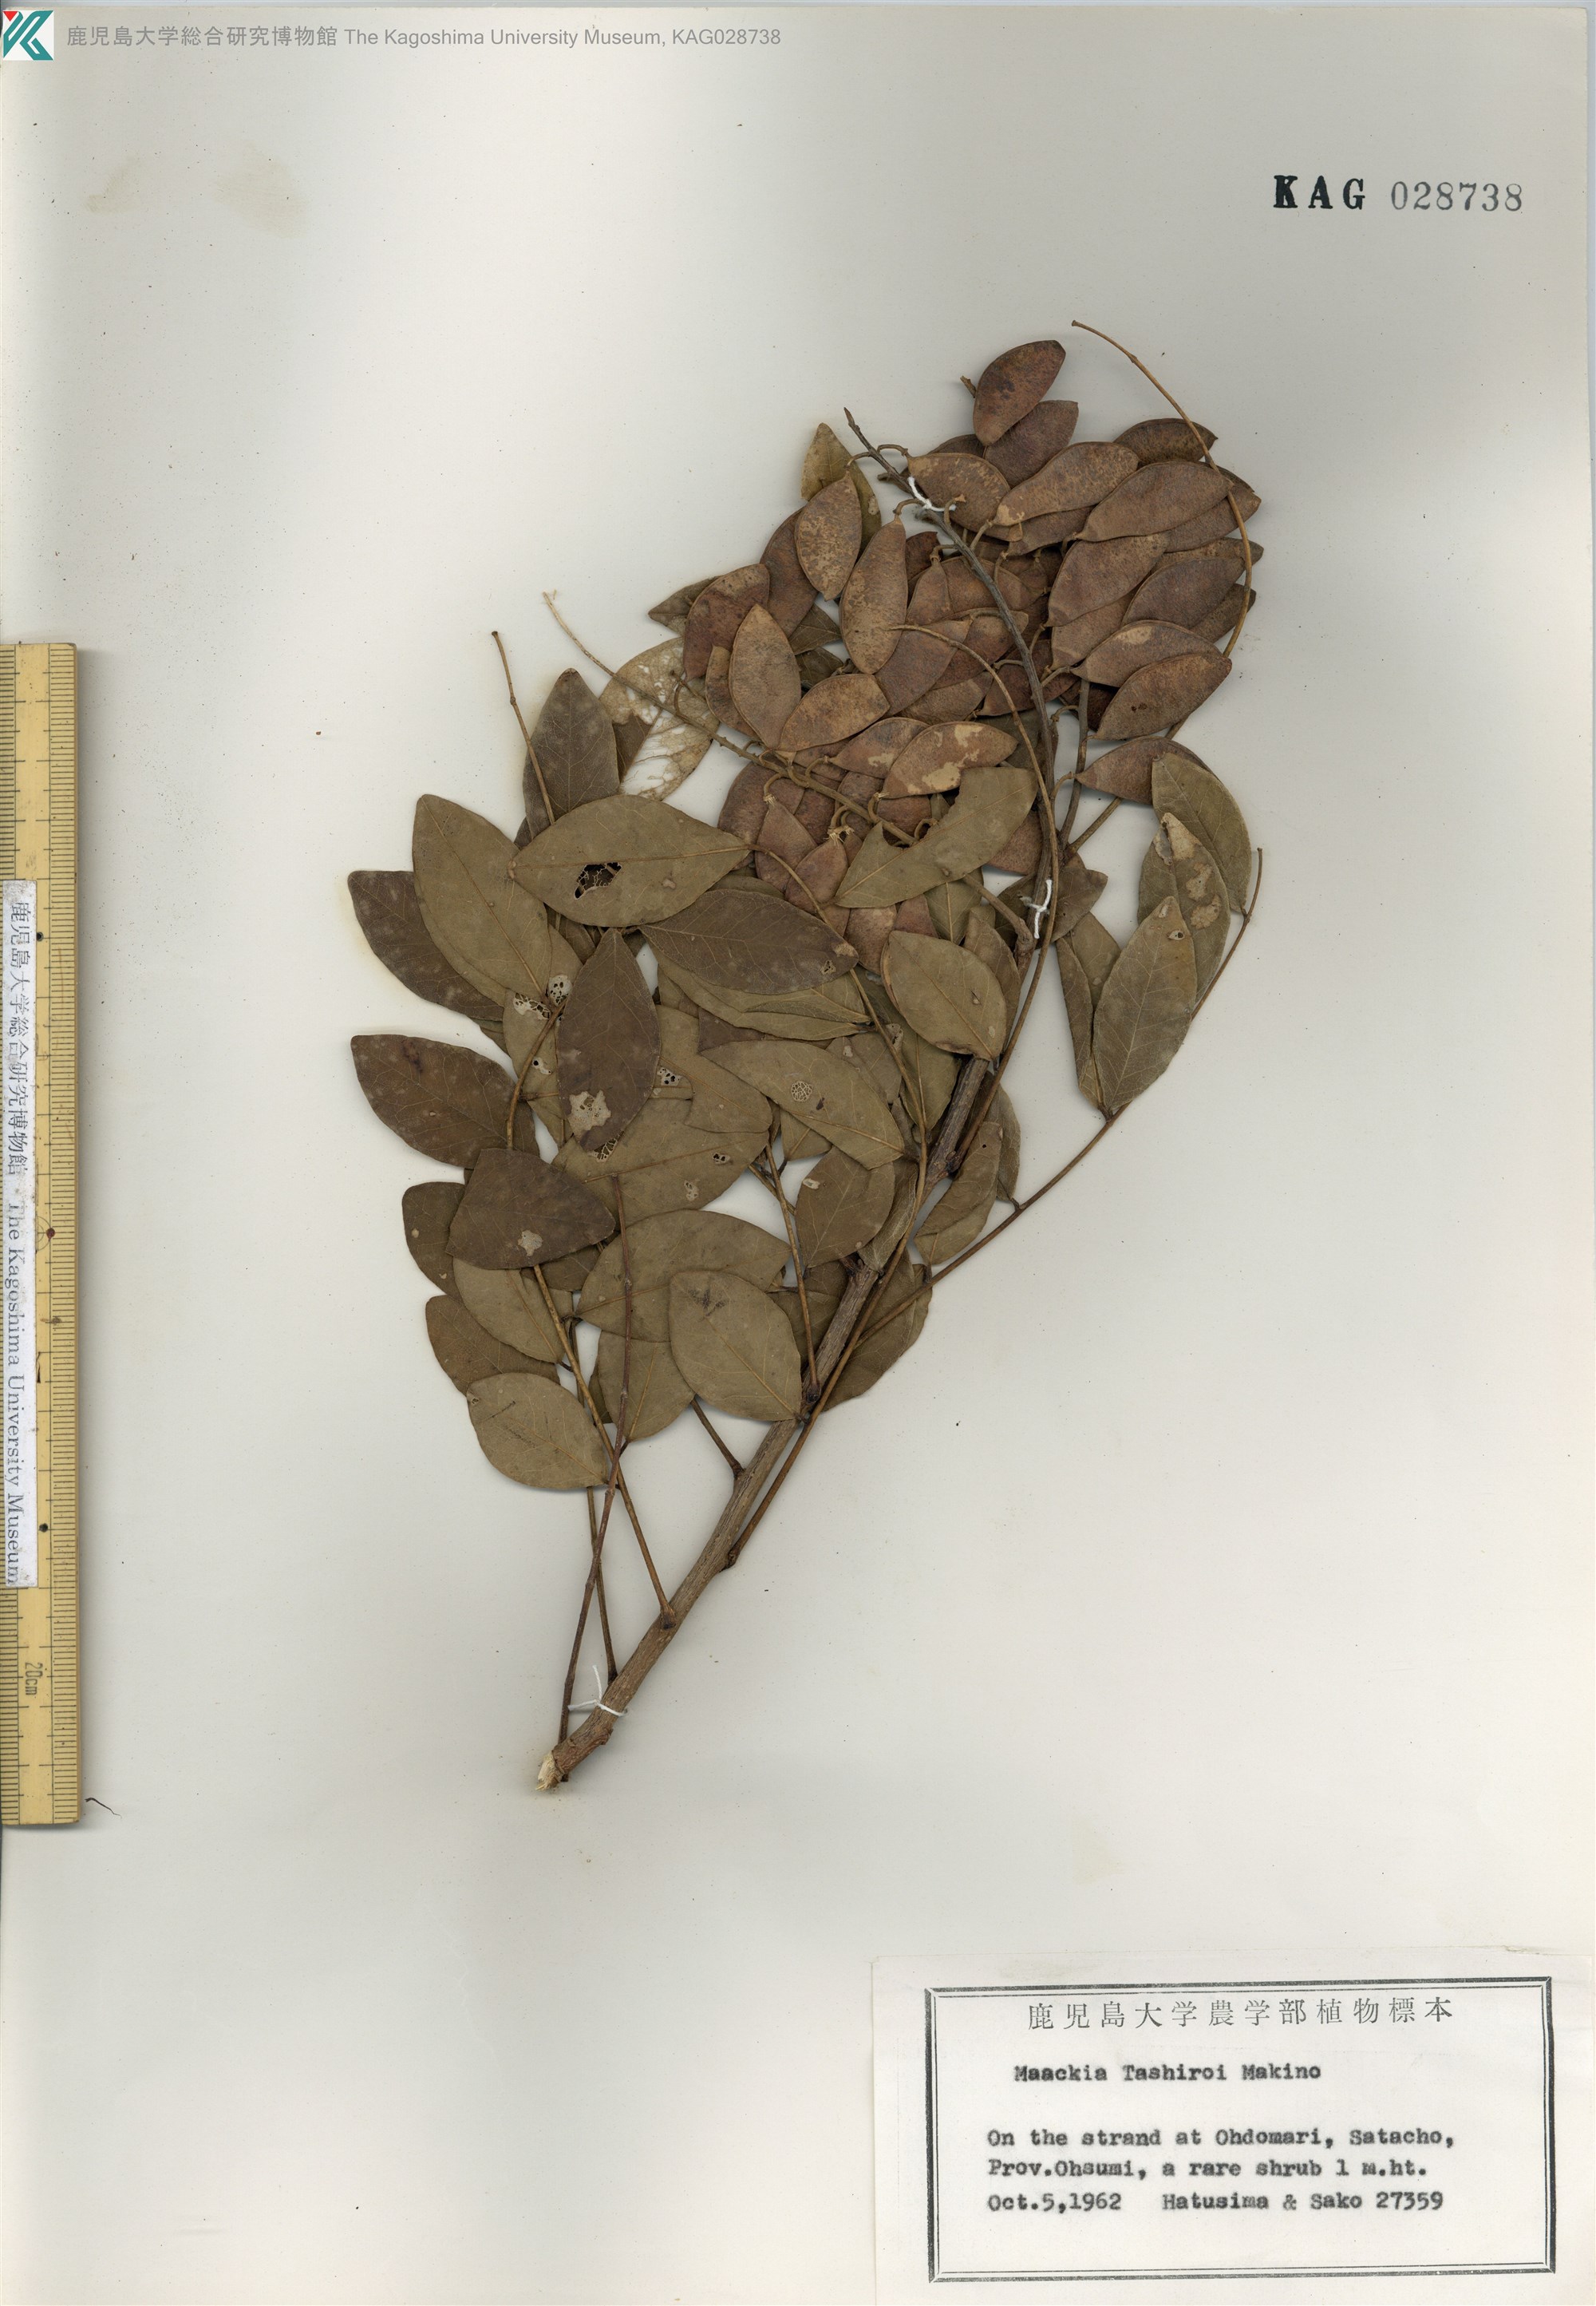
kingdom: Plantae
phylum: Tracheophyta
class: Magnoliopsida
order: Fabales
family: Fabaceae
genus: Maackia
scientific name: Maackia tashiroi
